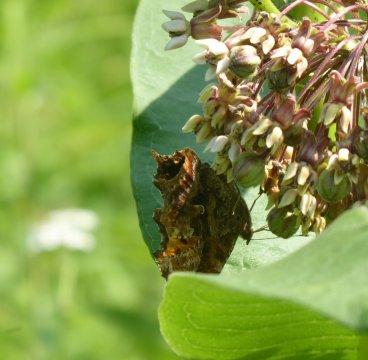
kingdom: Animalia
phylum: Arthropoda
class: Insecta
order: Lepidoptera
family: Nymphalidae
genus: Polygonia
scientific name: Polygonia comma
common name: Eastern Comma
